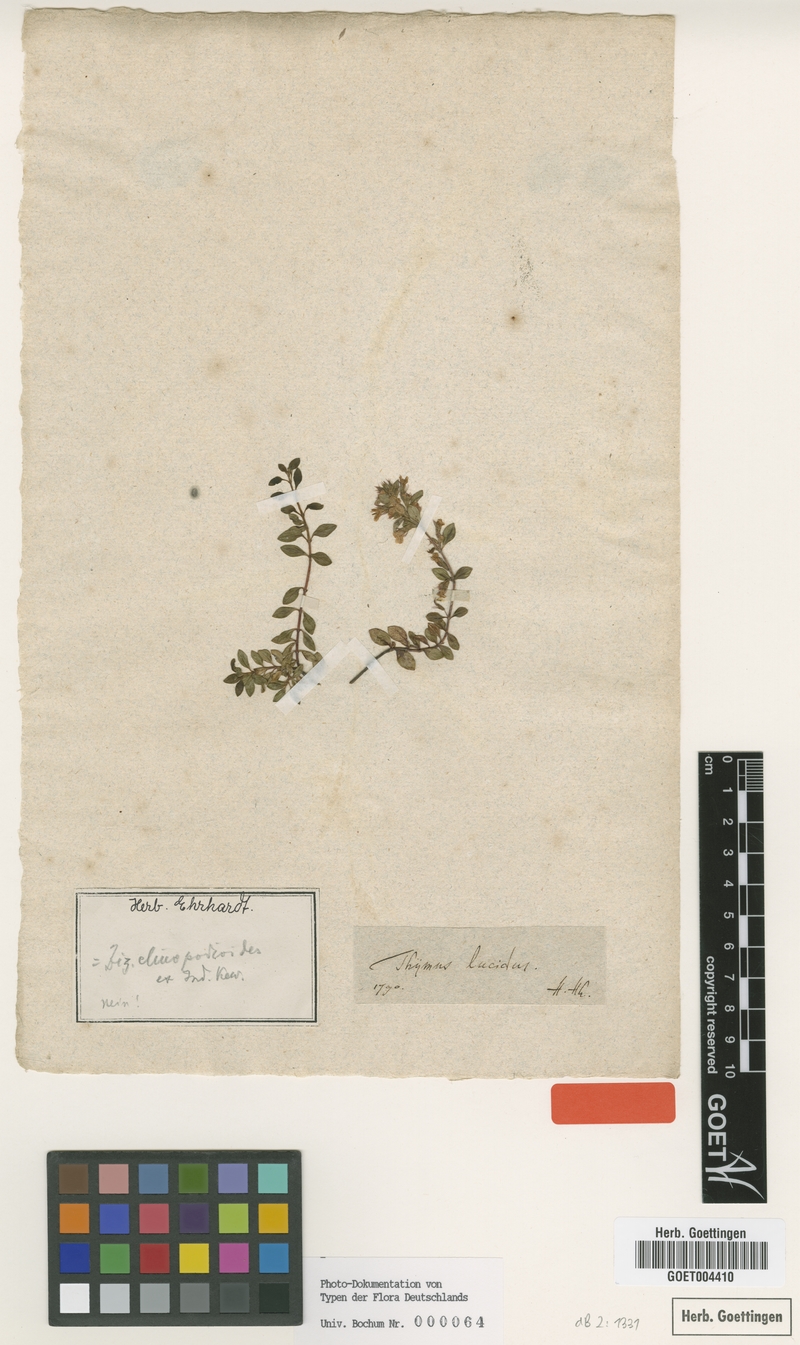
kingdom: Plantae
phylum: Tracheophyta
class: Magnoliopsida
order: Lamiales
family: Lamiaceae
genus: Ziziphora
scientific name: Ziziphora clinopodioides
